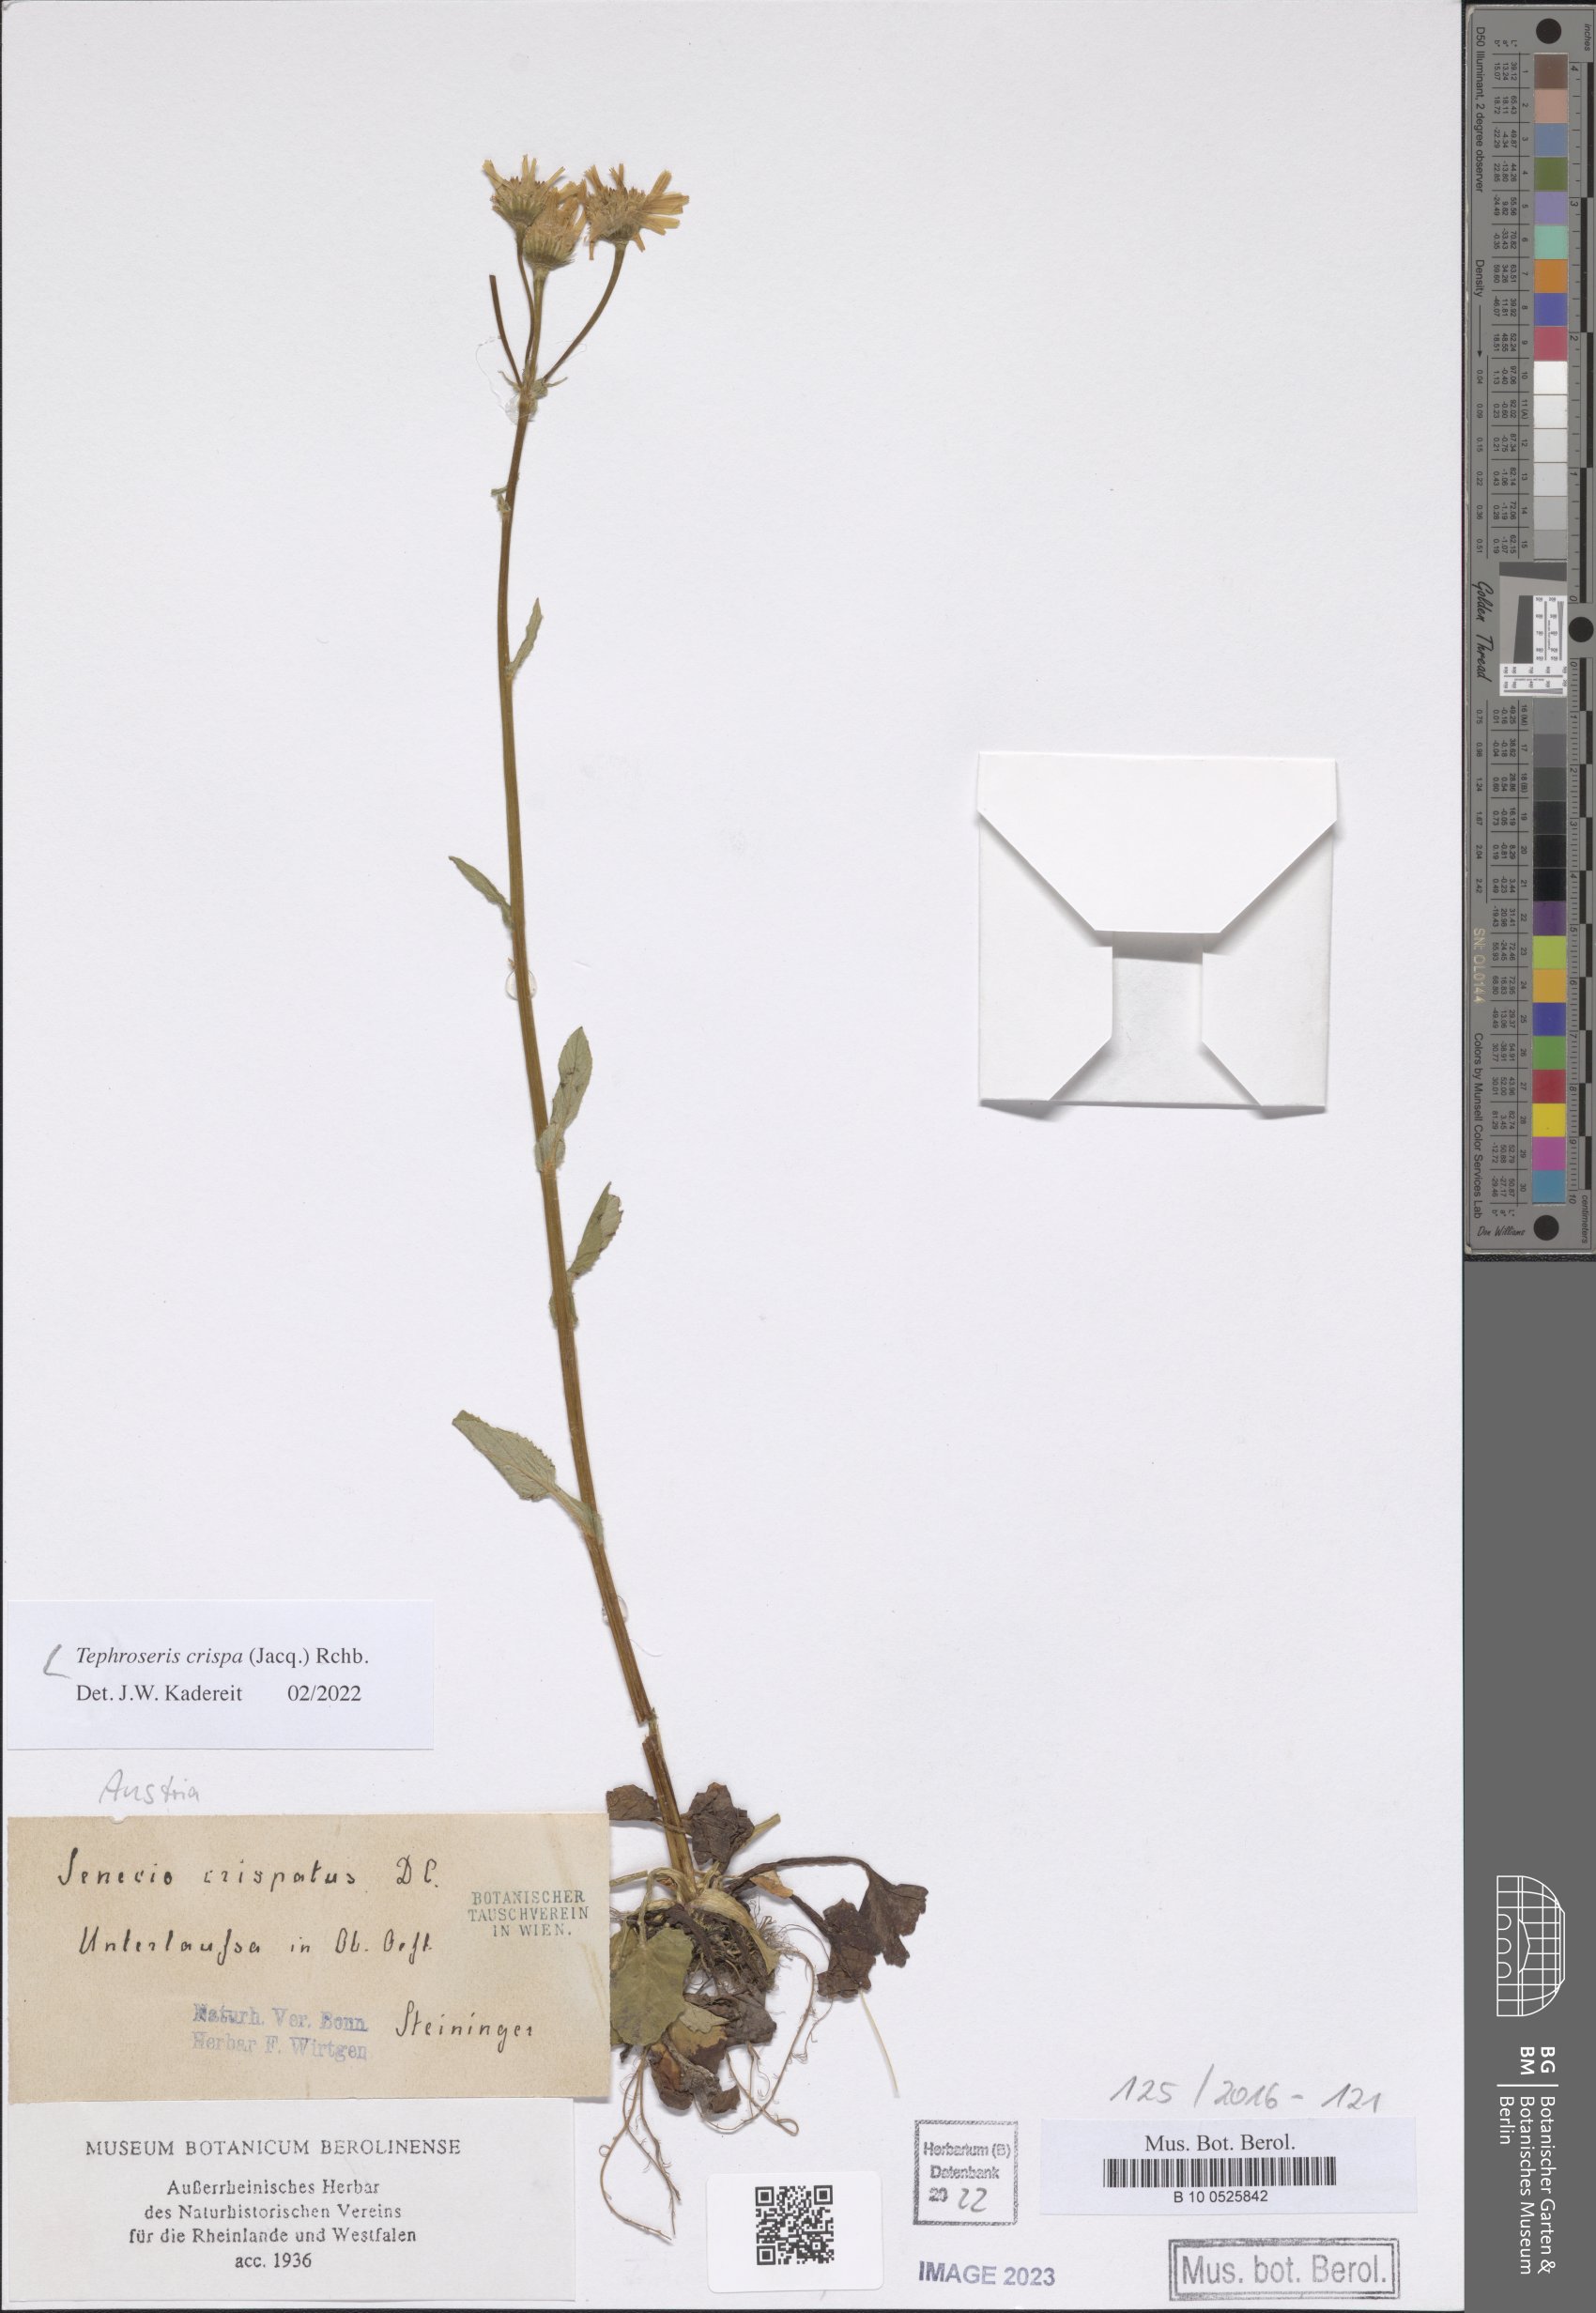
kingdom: Plantae
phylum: Tracheophyta
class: Magnoliopsida
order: Asterales
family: Asteraceae
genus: Tephroseris
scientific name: Tephroseris crispa
